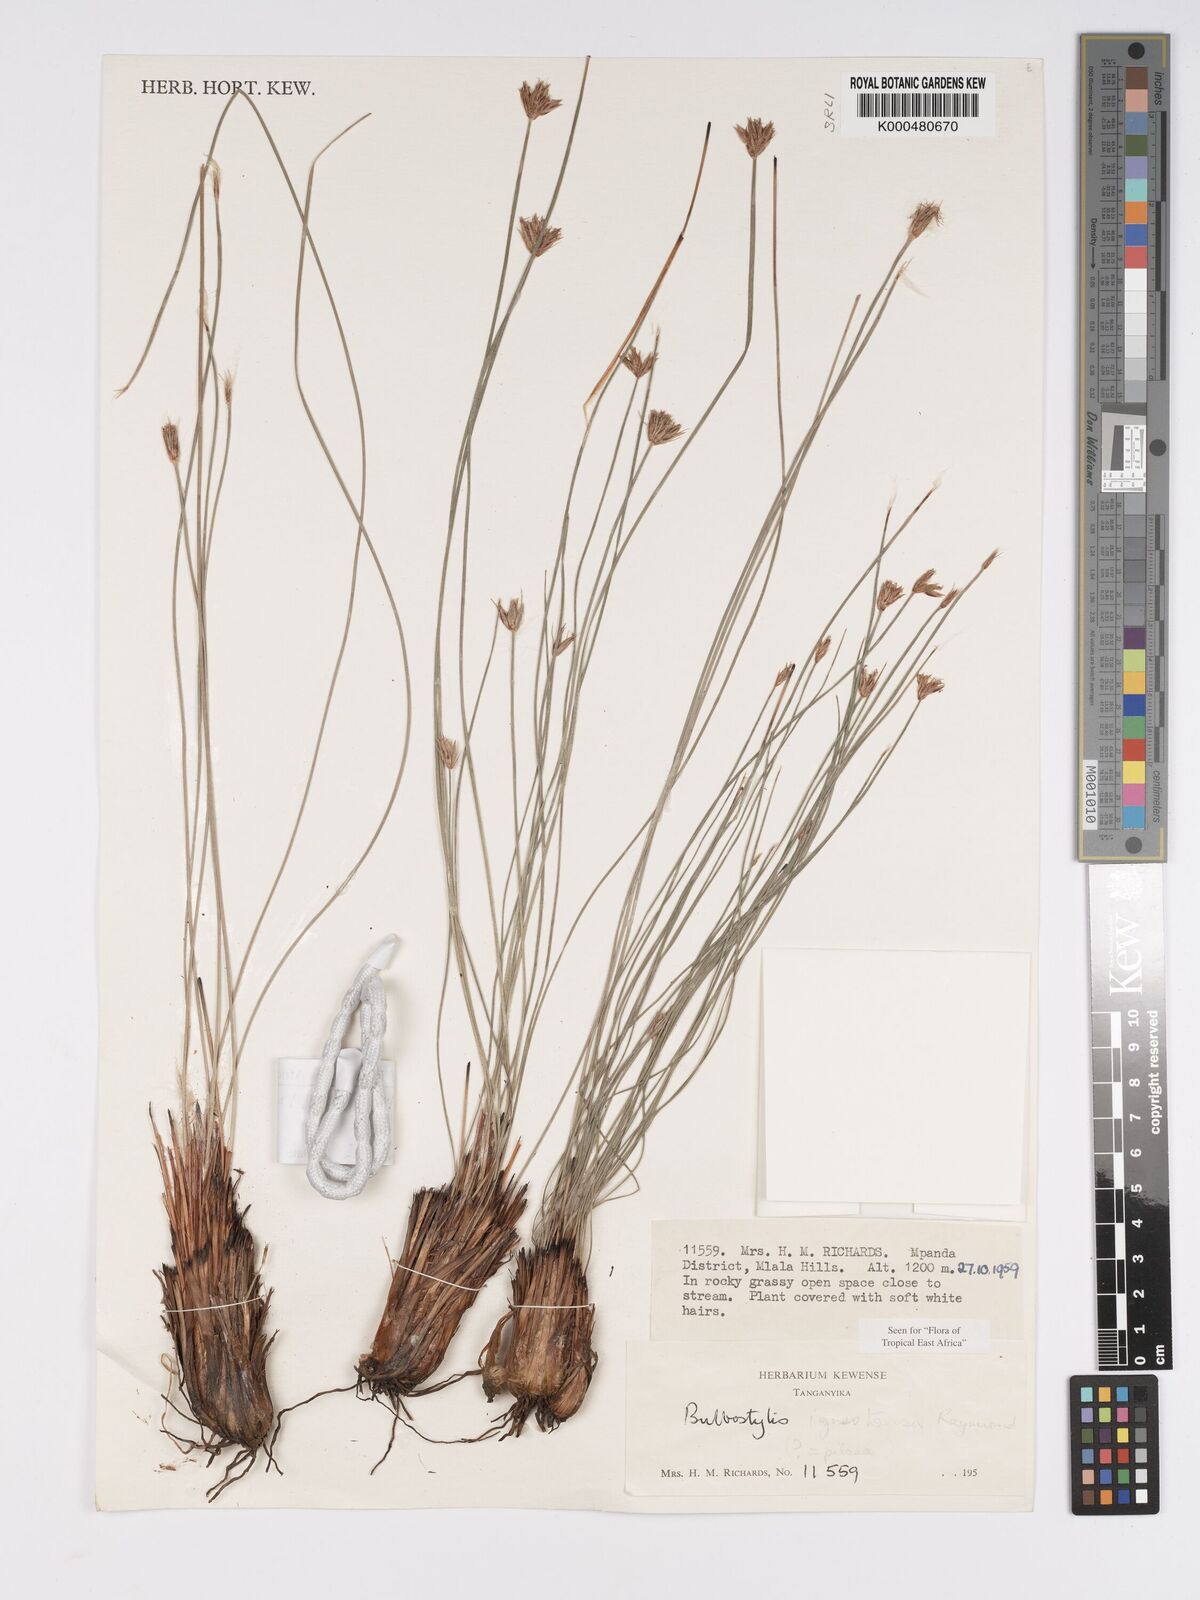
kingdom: Plantae
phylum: Tracheophyta
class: Liliopsida
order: Poales
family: Cyperaceae
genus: Bulbostylis
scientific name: Bulbostylis igneotonsa
